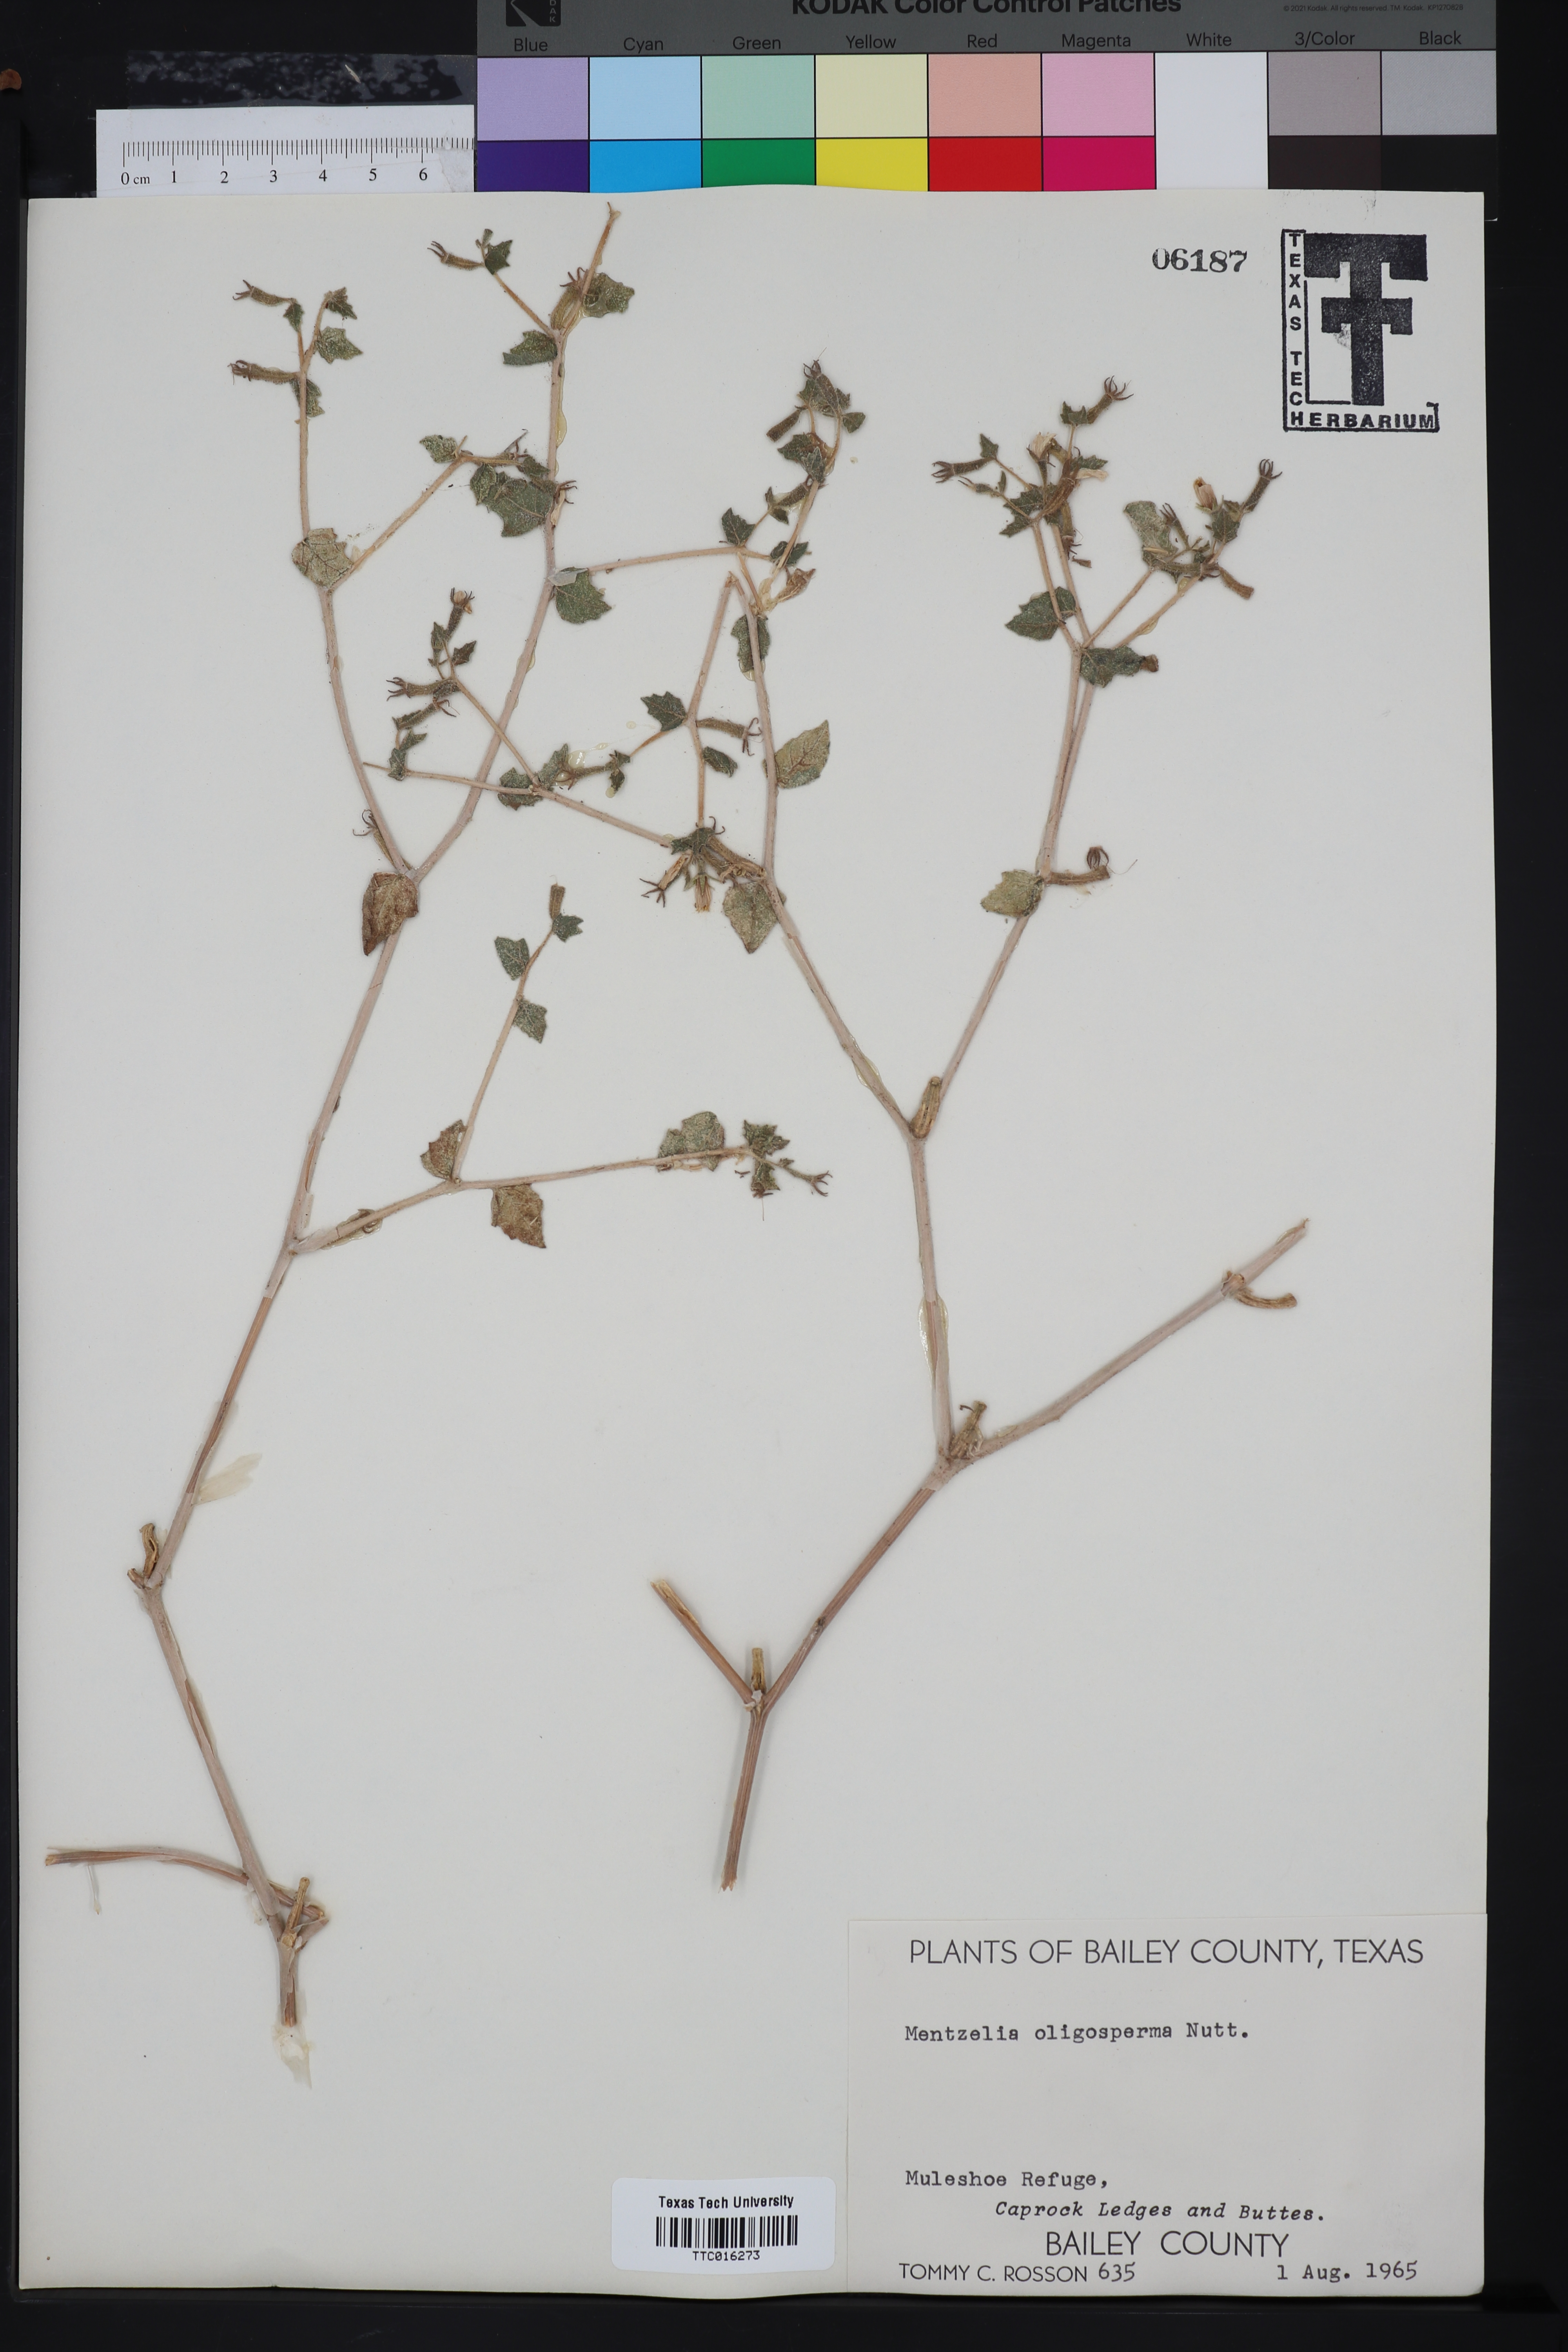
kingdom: Plantae
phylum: Tracheophyta
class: Magnoliopsida
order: Cornales
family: Loasaceae
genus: Mentzelia
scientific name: Mentzelia oligosperma
